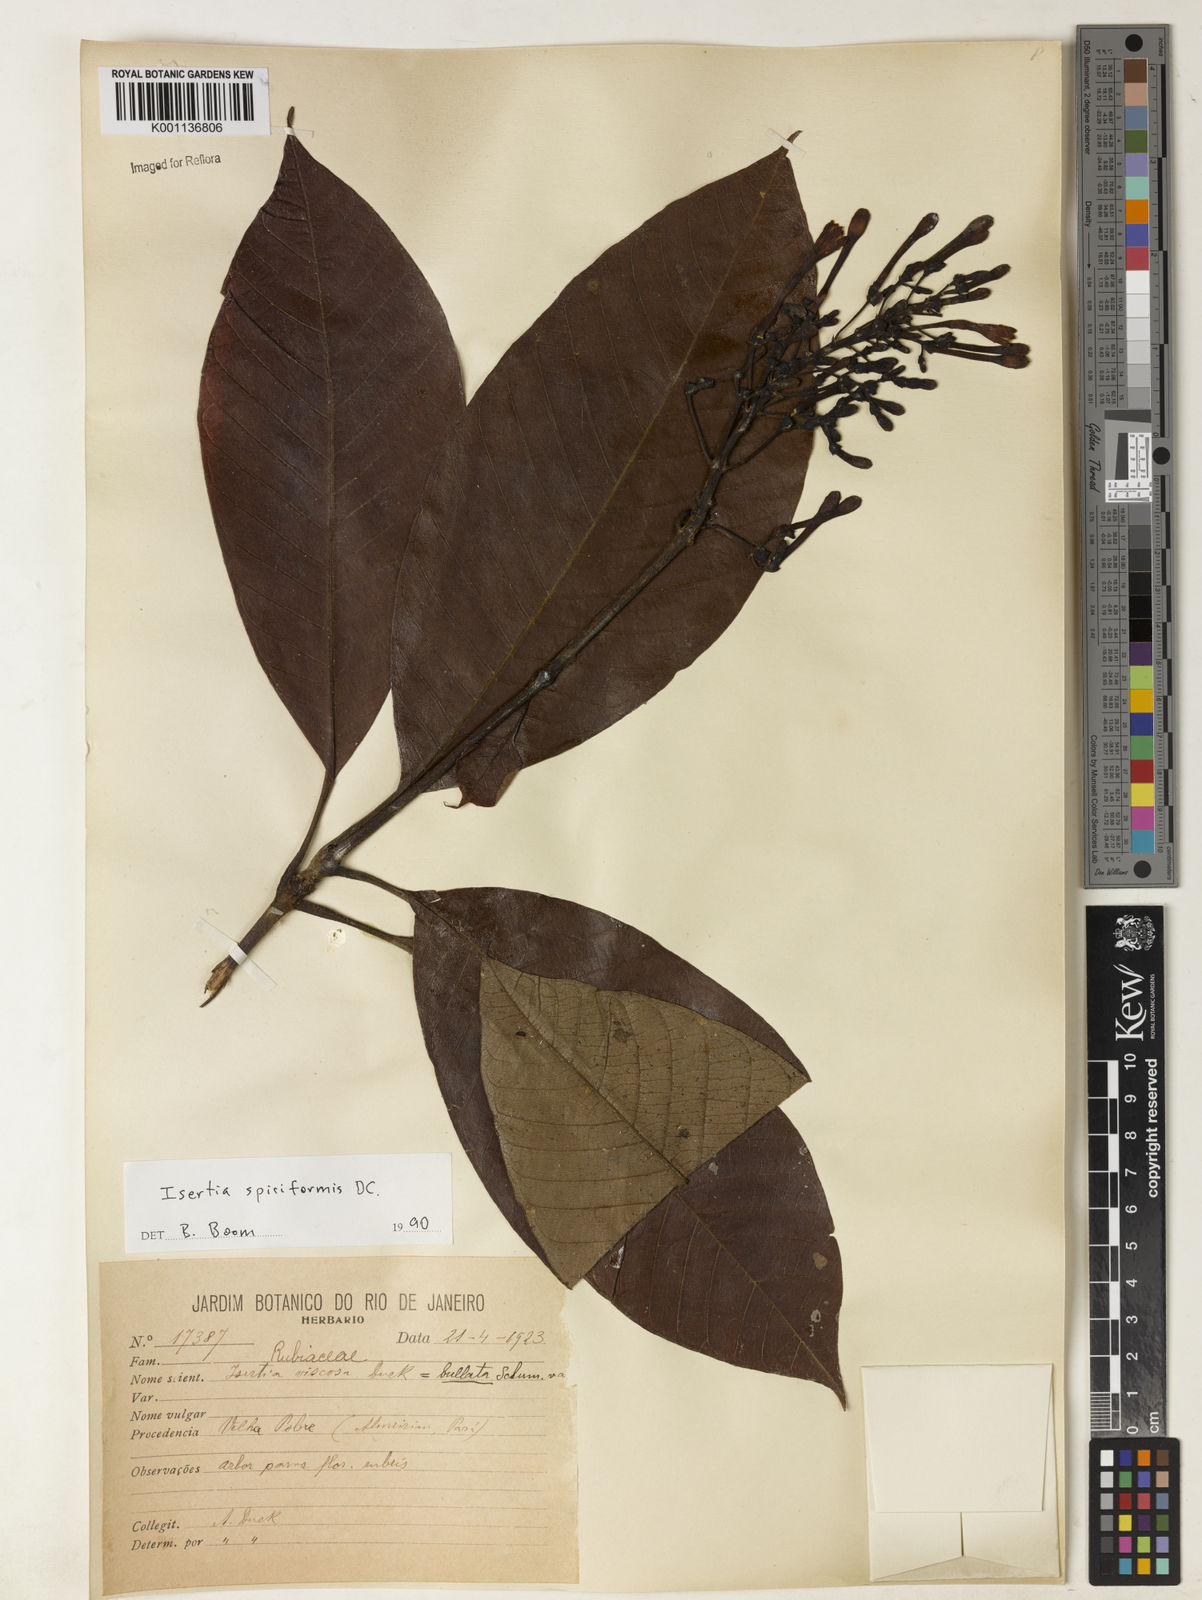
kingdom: Plantae
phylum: Tracheophyta
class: Magnoliopsida
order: Gentianales
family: Rubiaceae
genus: Isertia
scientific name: Isertia spiciformis
